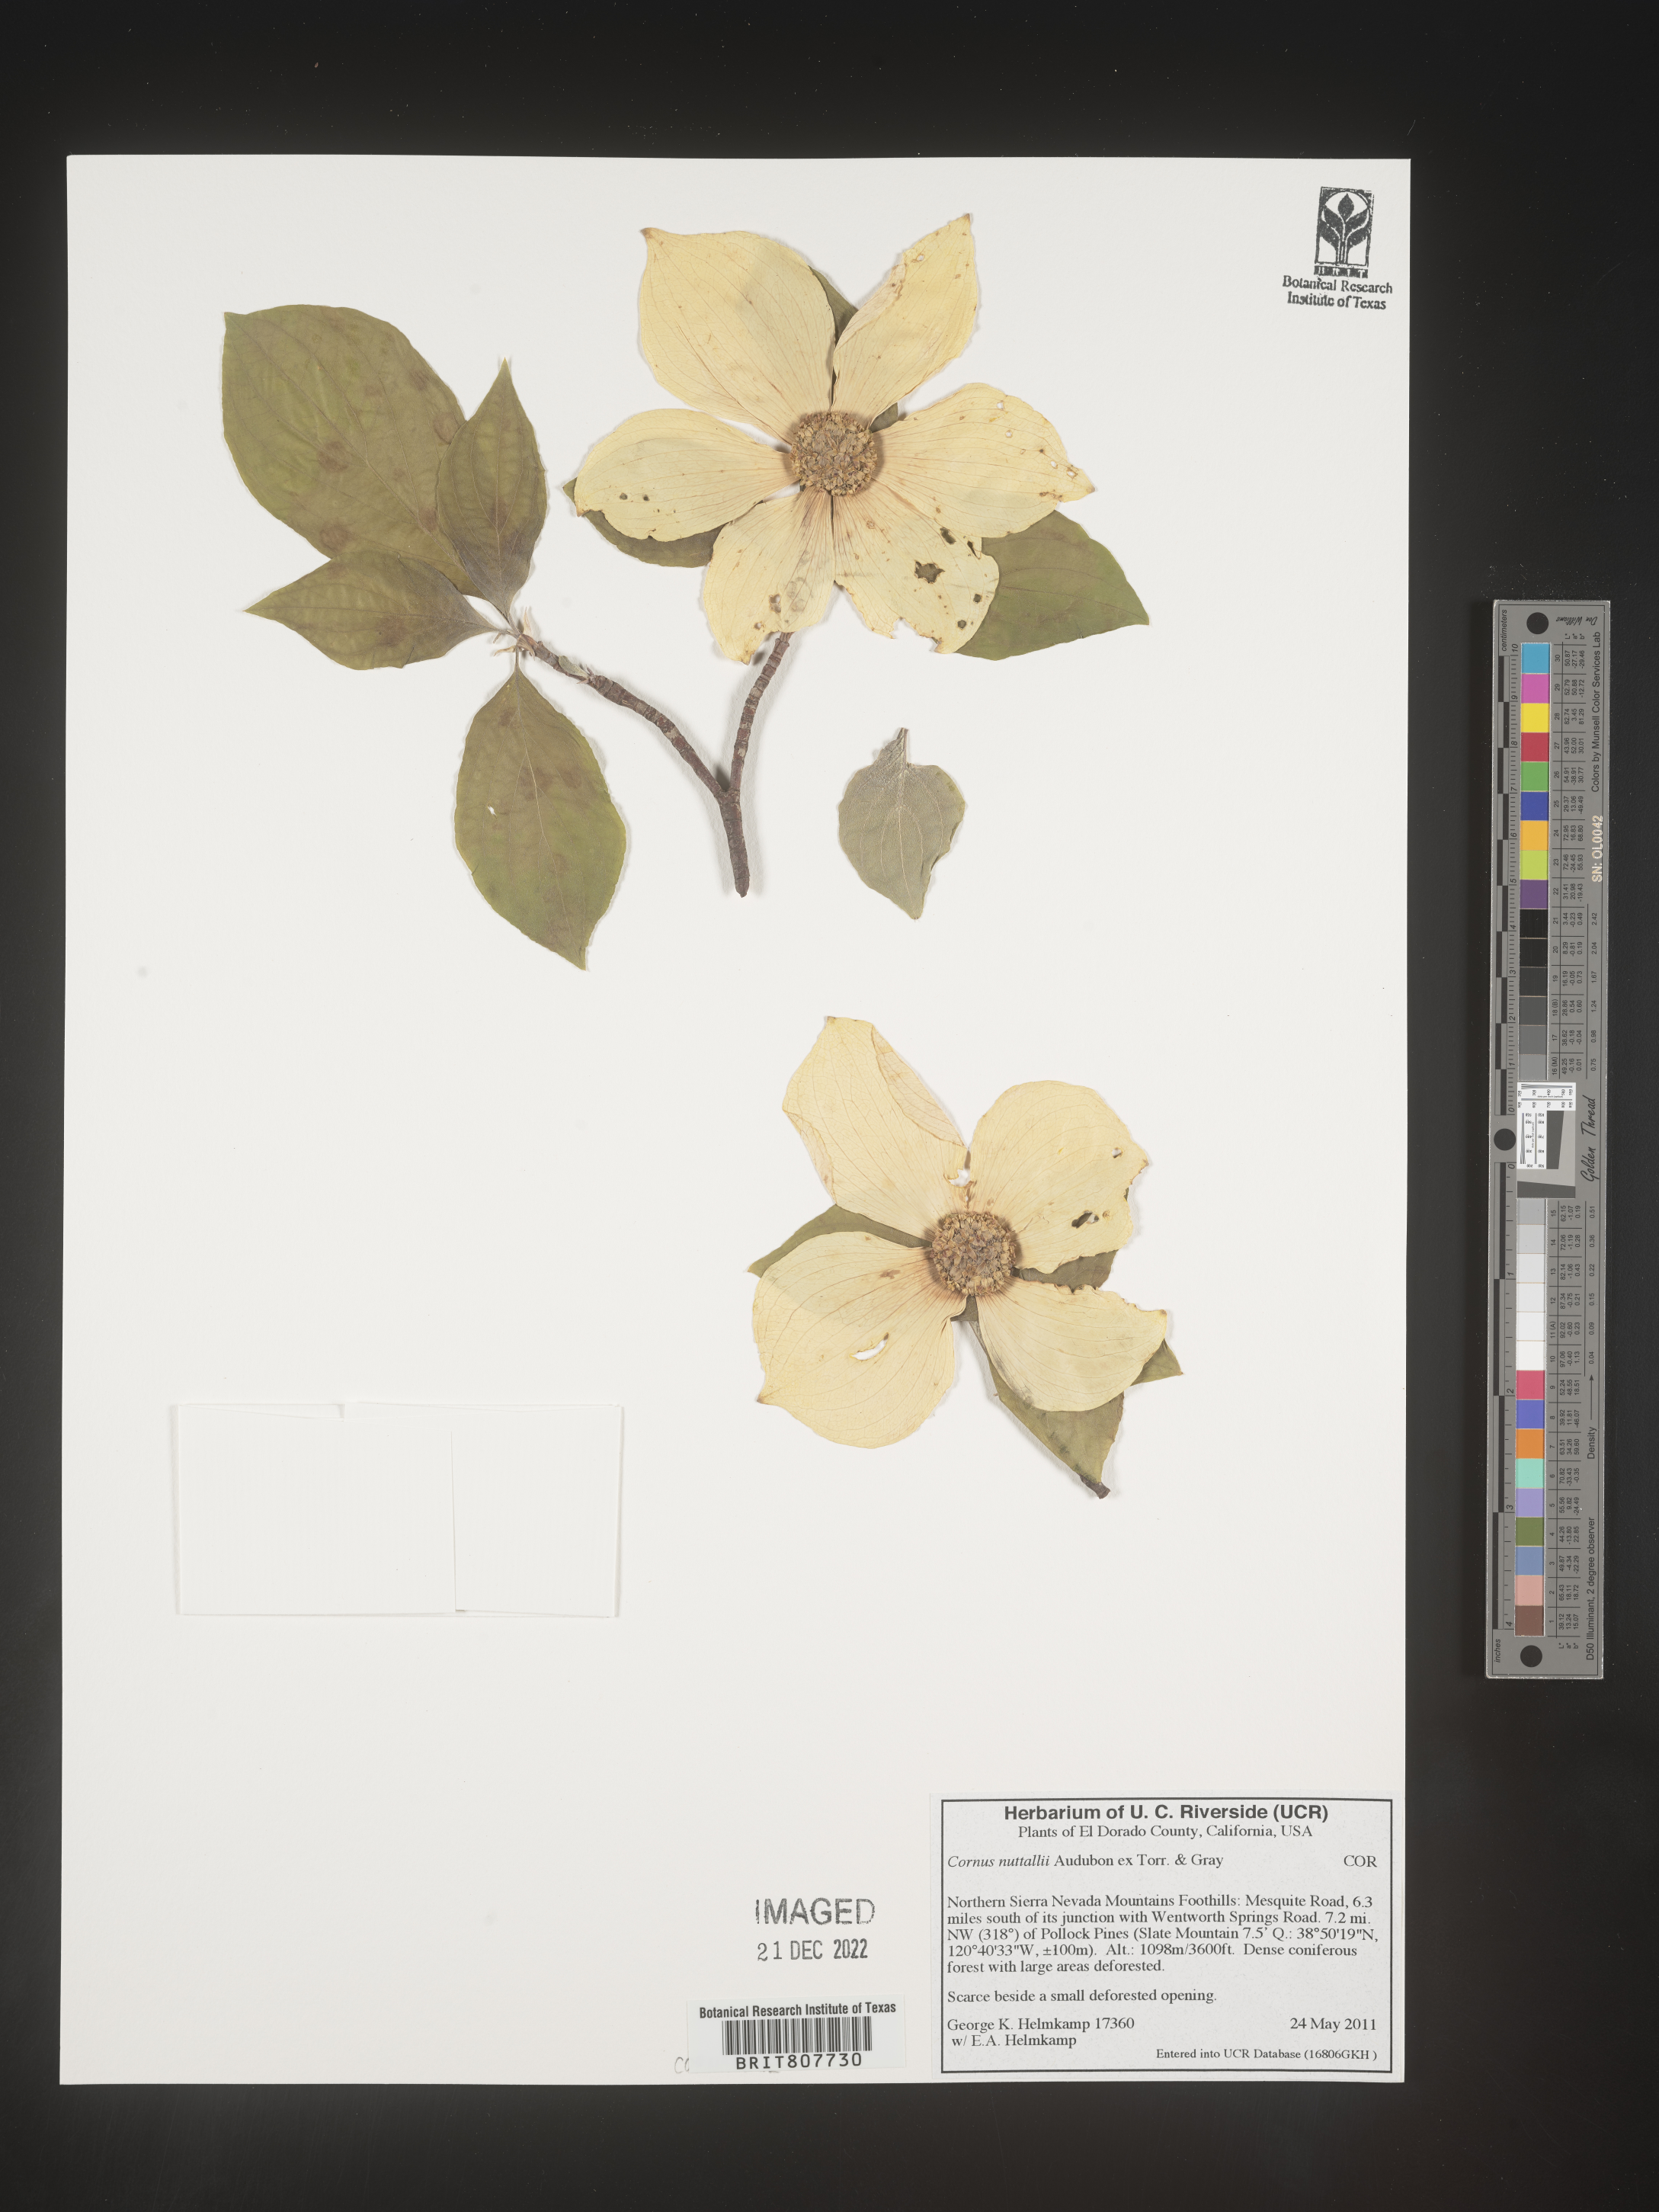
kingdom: Plantae
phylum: Tracheophyta
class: Magnoliopsida
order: Cornales
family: Cornaceae
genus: Cornus
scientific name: Cornus nuttallii
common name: Pacific dogwood
